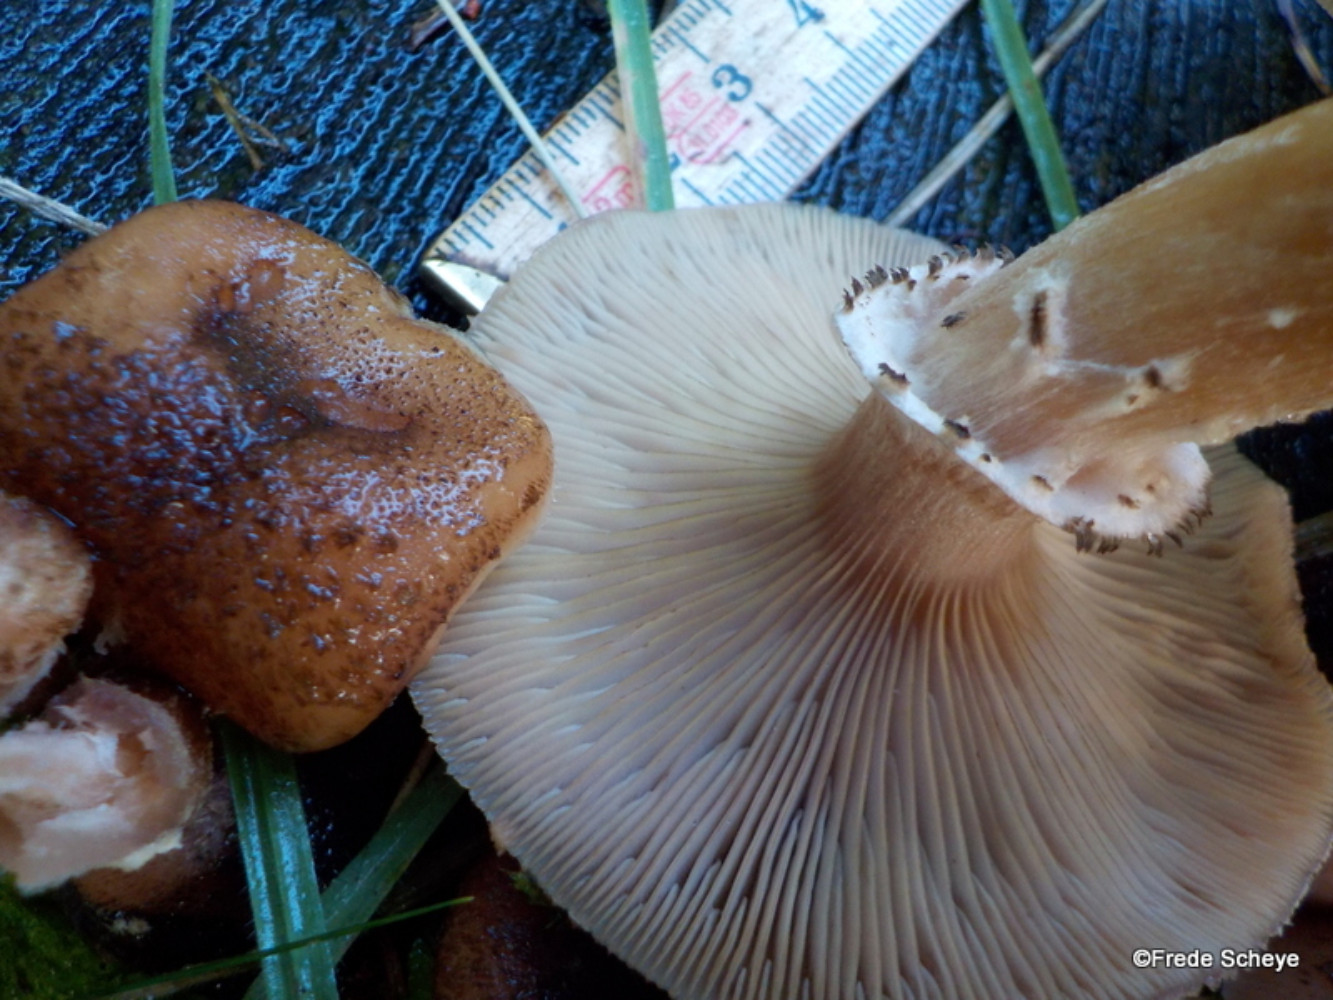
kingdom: Fungi
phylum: Basidiomycota
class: Agaricomycetes
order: Agaricales
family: Physalacriaceae
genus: Armillaria
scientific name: Armillaria ostoyae
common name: mørk honningsvamp
